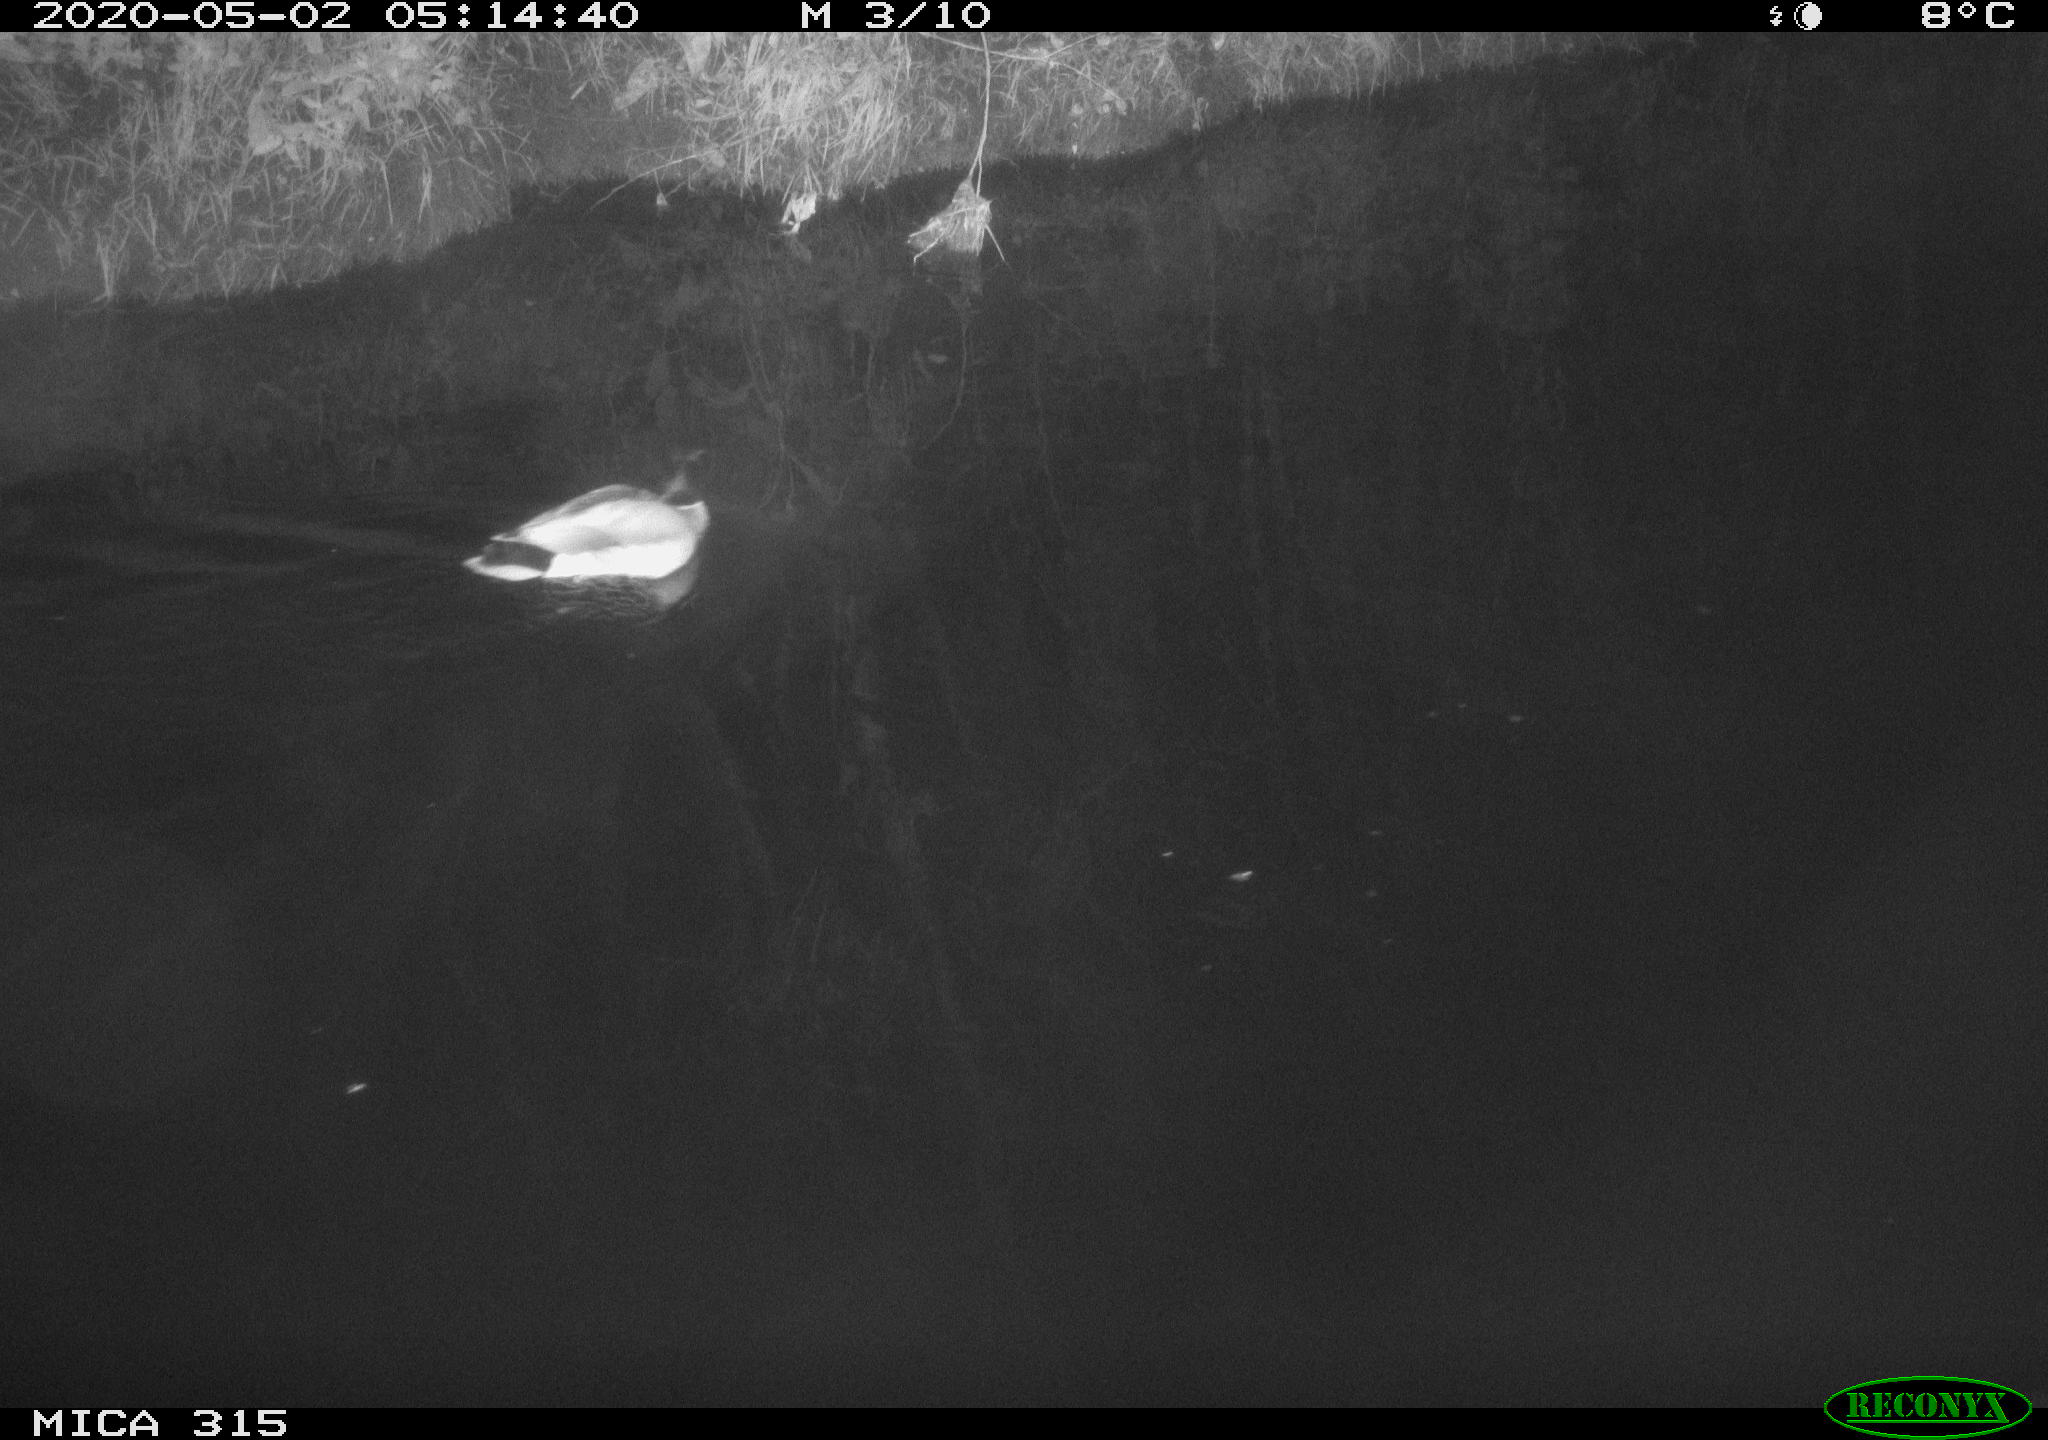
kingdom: Animalia
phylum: Chordata
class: Aves
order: Anseriformes
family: Anatidae
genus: Anas
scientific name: Anas platyrhynchos
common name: Mallard
